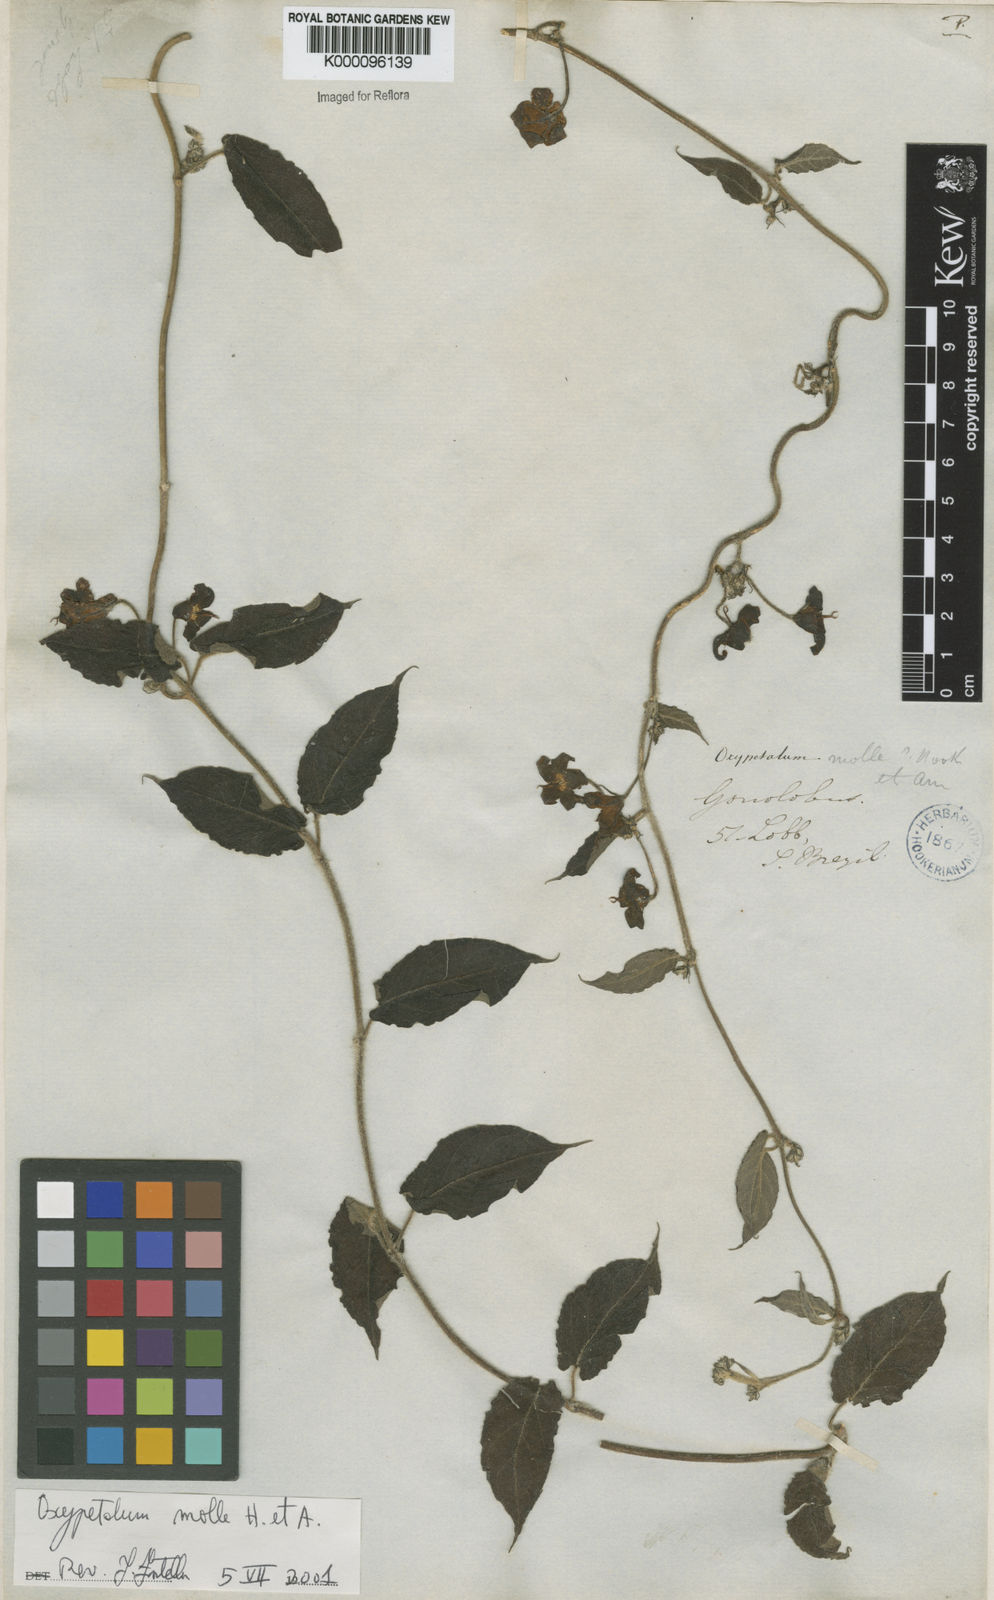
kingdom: Plantae
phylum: Tracheophyta
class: Magnoliopsida
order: Gentianales
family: Apocynaceae
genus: Oxypetalum
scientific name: Oxypetalum molle
